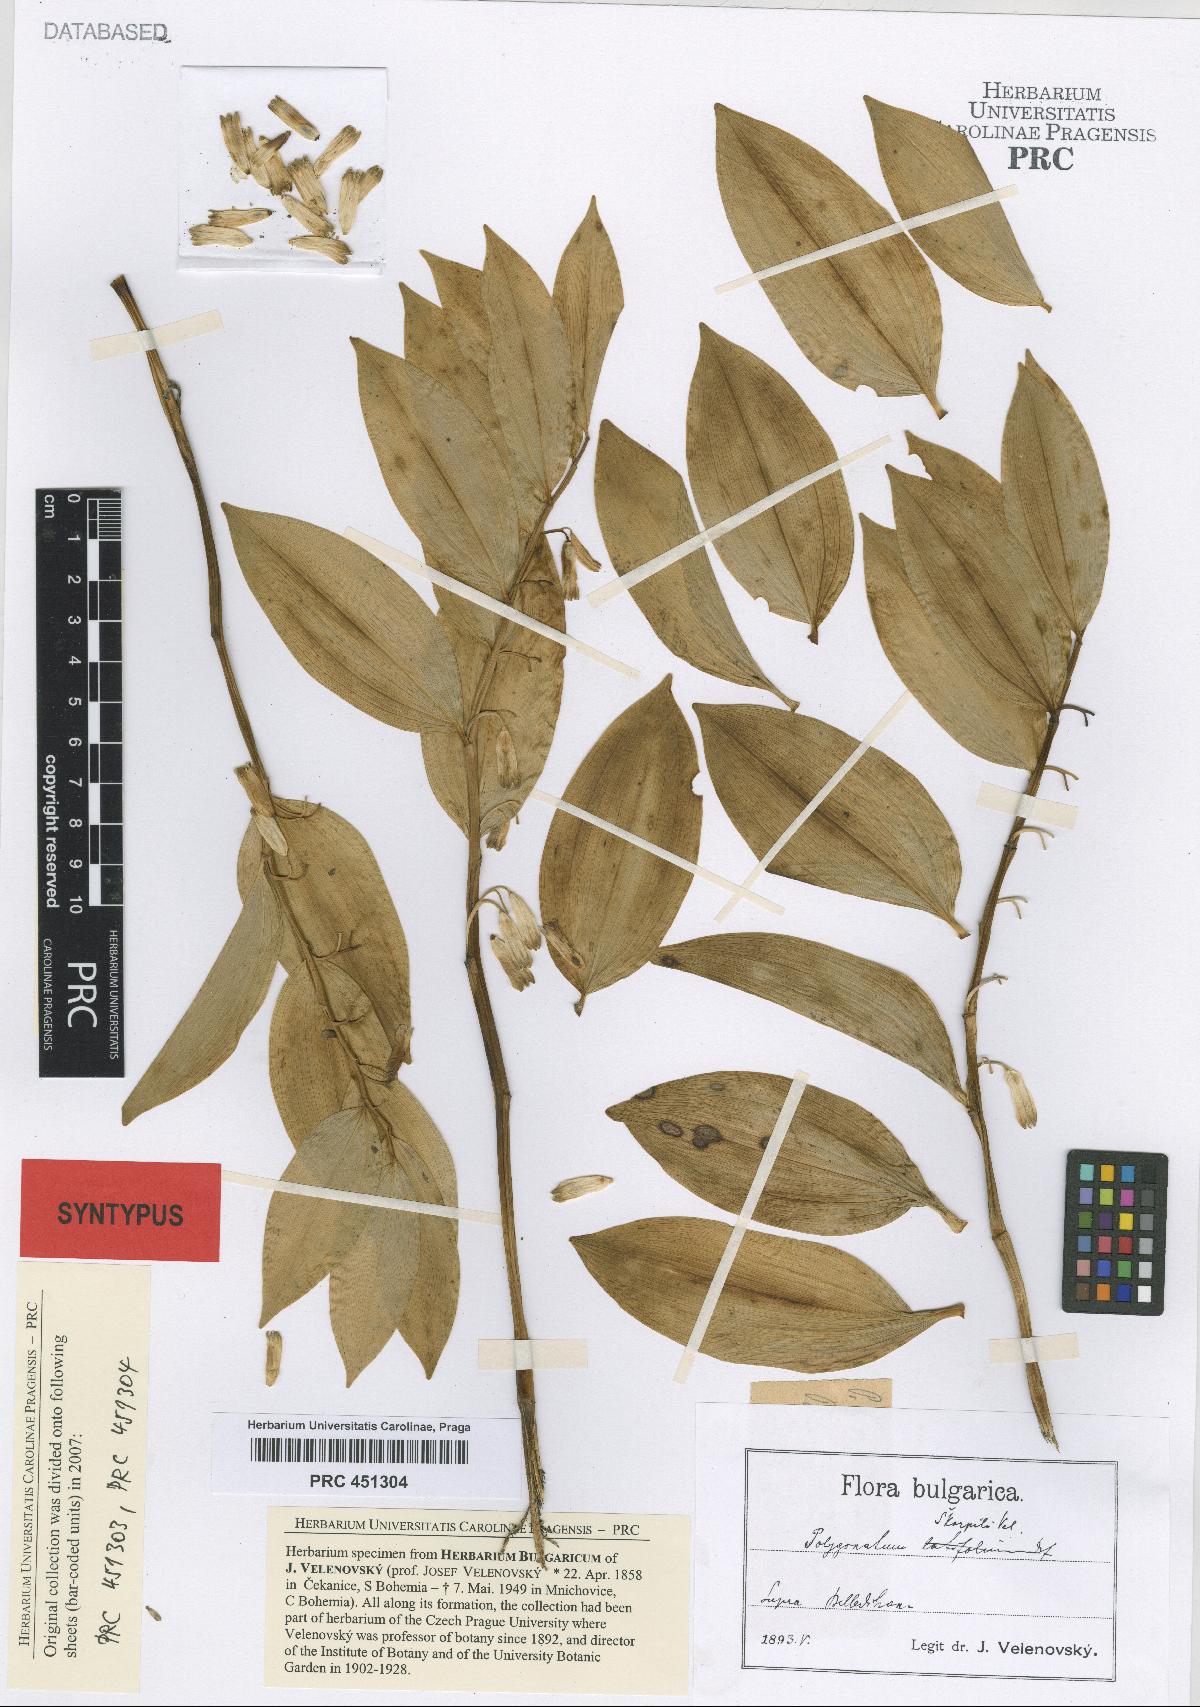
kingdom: Plantae
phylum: Tracheophyta
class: Liliopsida
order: Asparagales
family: Asparagaceae
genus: Polygonatum
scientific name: Polygonatum latifolium
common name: Broadleaf solomon's seal
